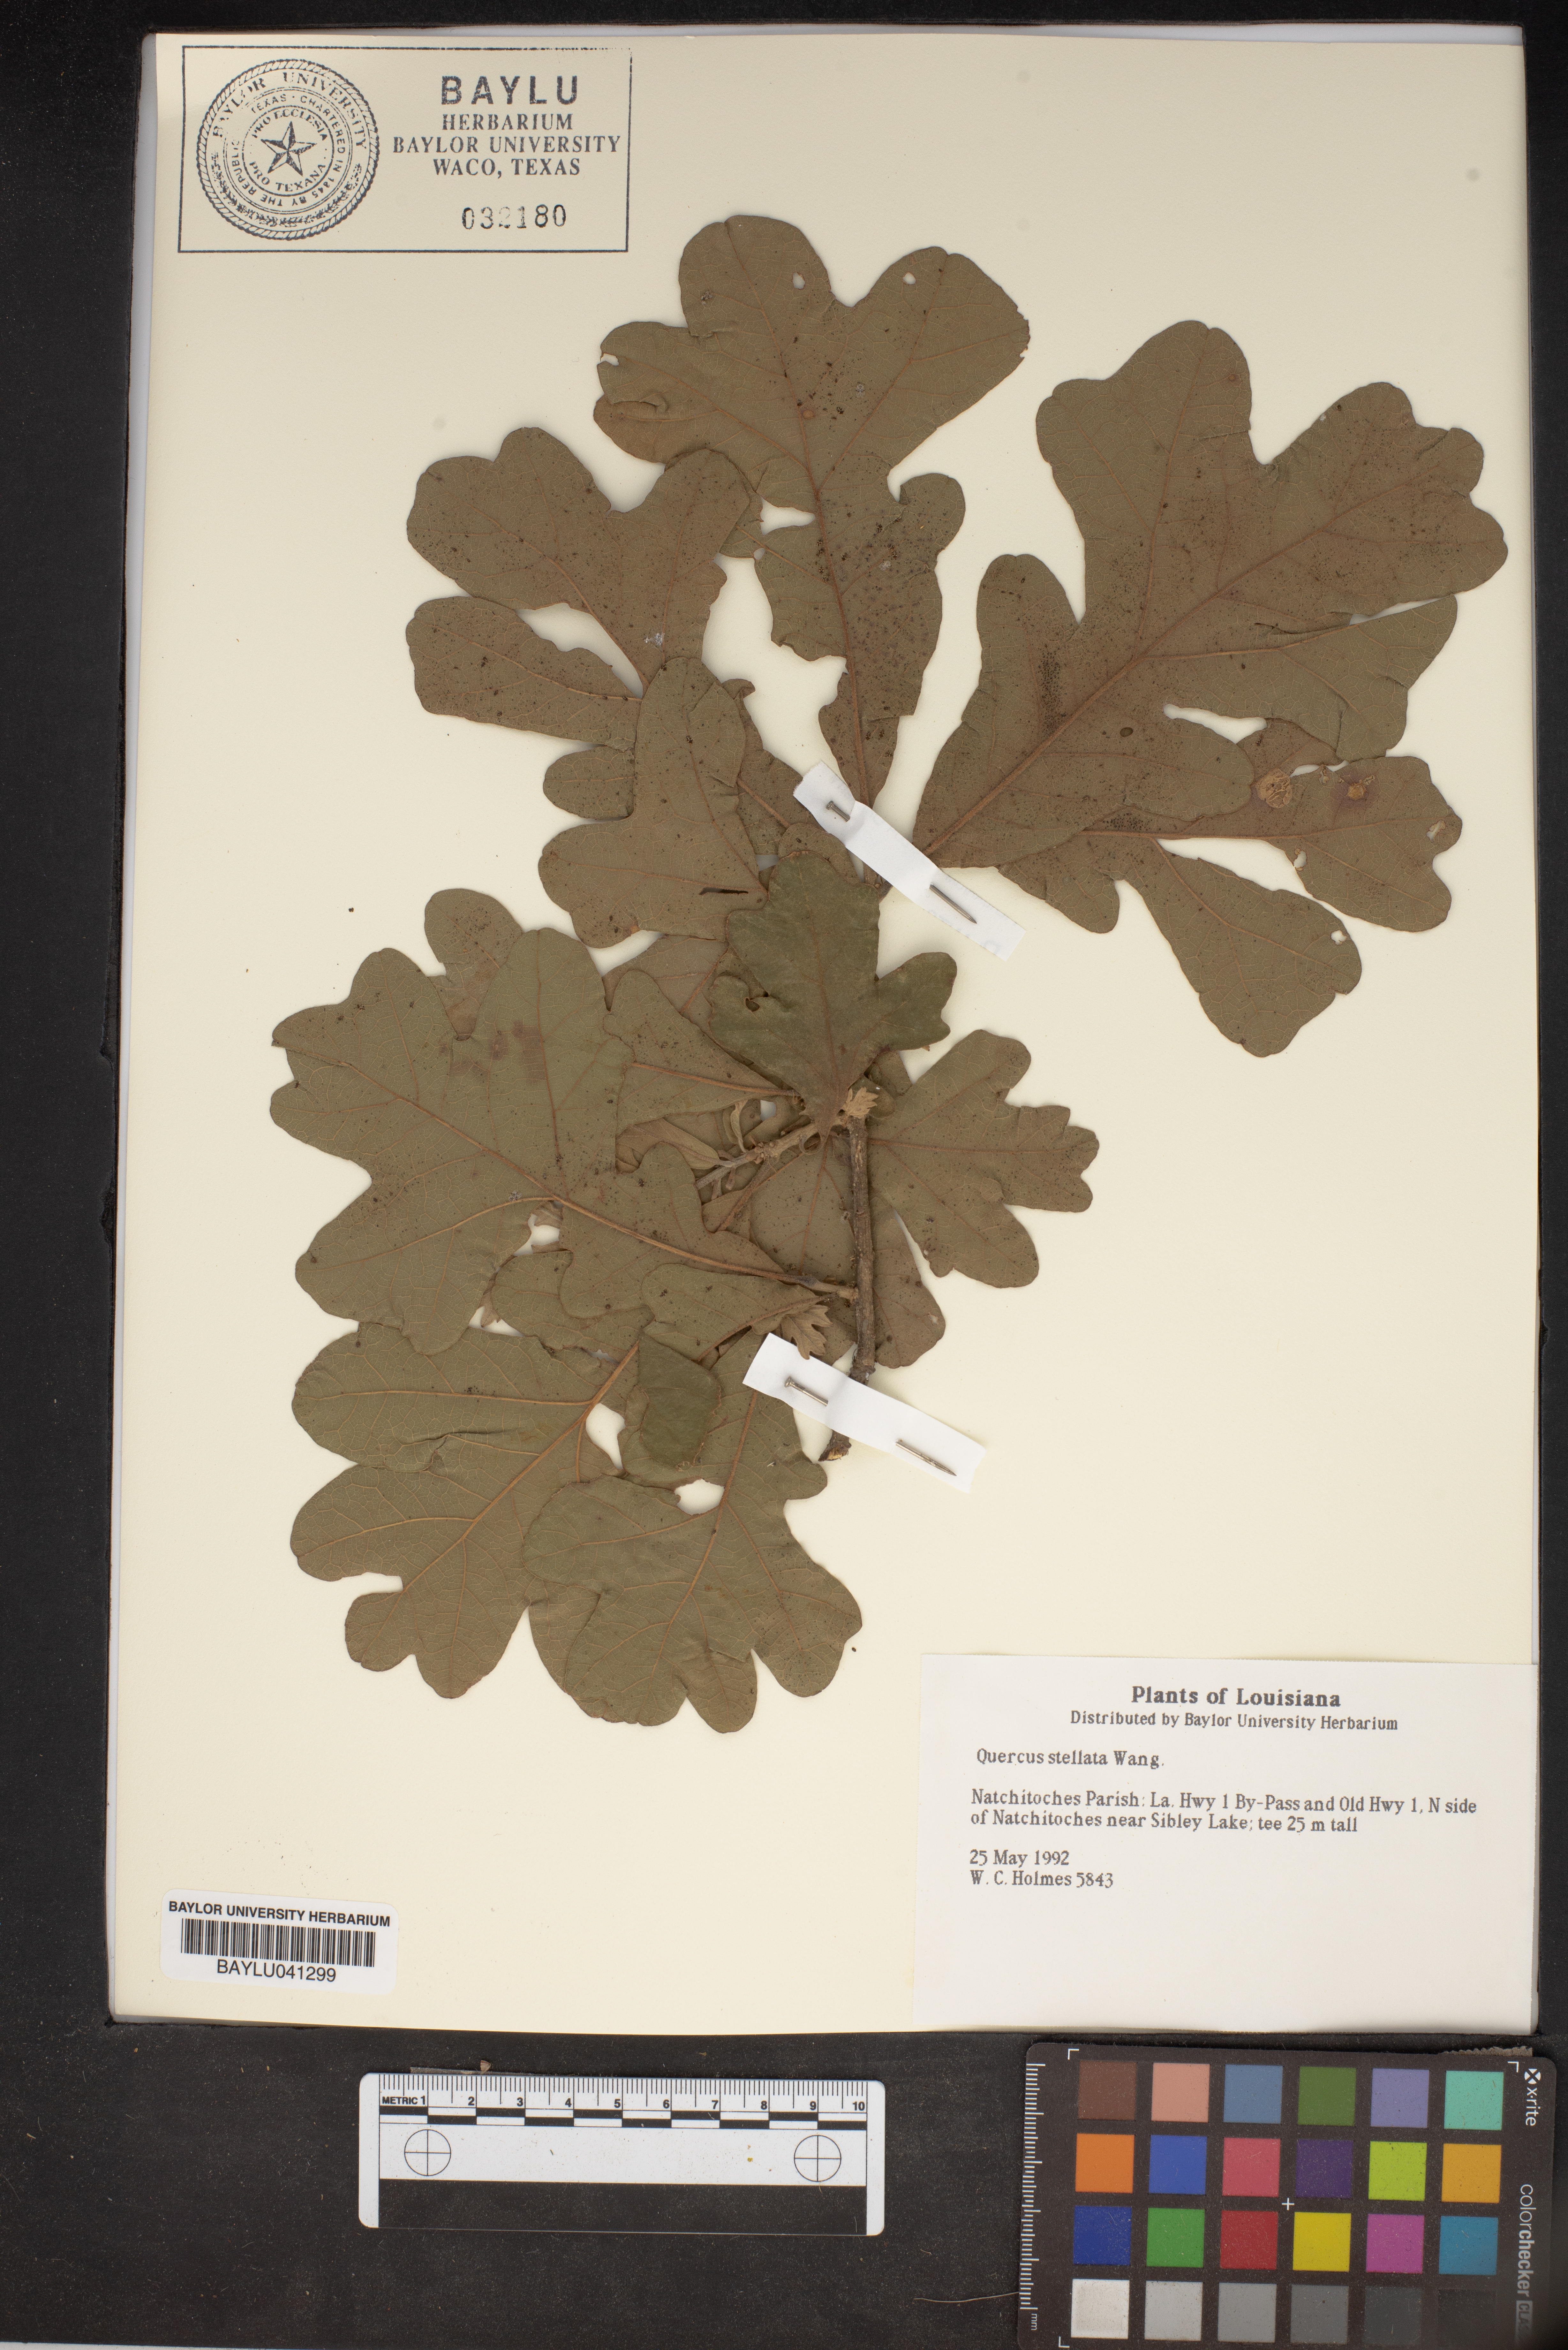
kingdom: Plantae
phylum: Tracheophyta
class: Magnoliopsida
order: Fagales
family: Fagaceae
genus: Quercus
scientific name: Quercus stellata
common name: Post oak
